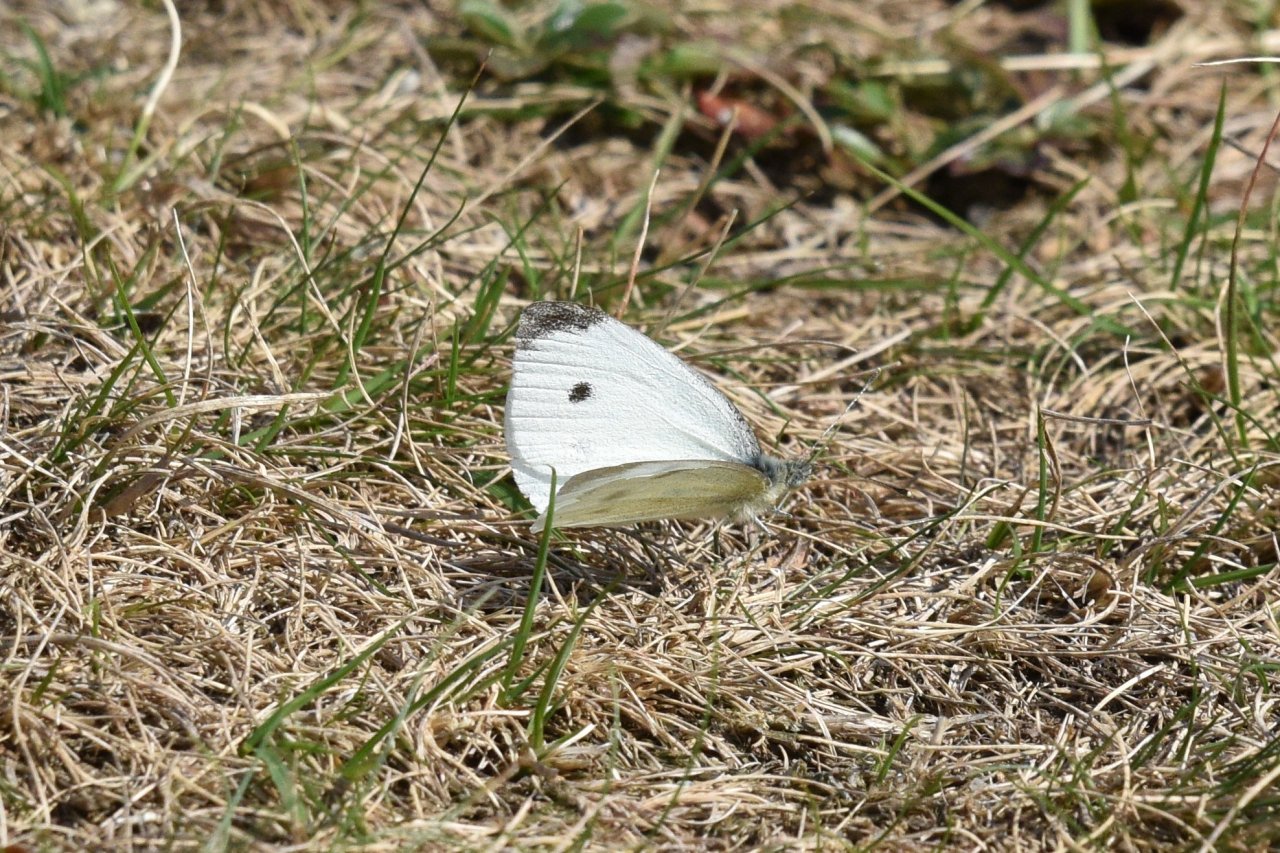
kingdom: Animalia
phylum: Arthropoda
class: Insecta
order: Lepidoptera
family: Pieridae
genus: Pieris
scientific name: Pieris rapae
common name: Cabbage White
